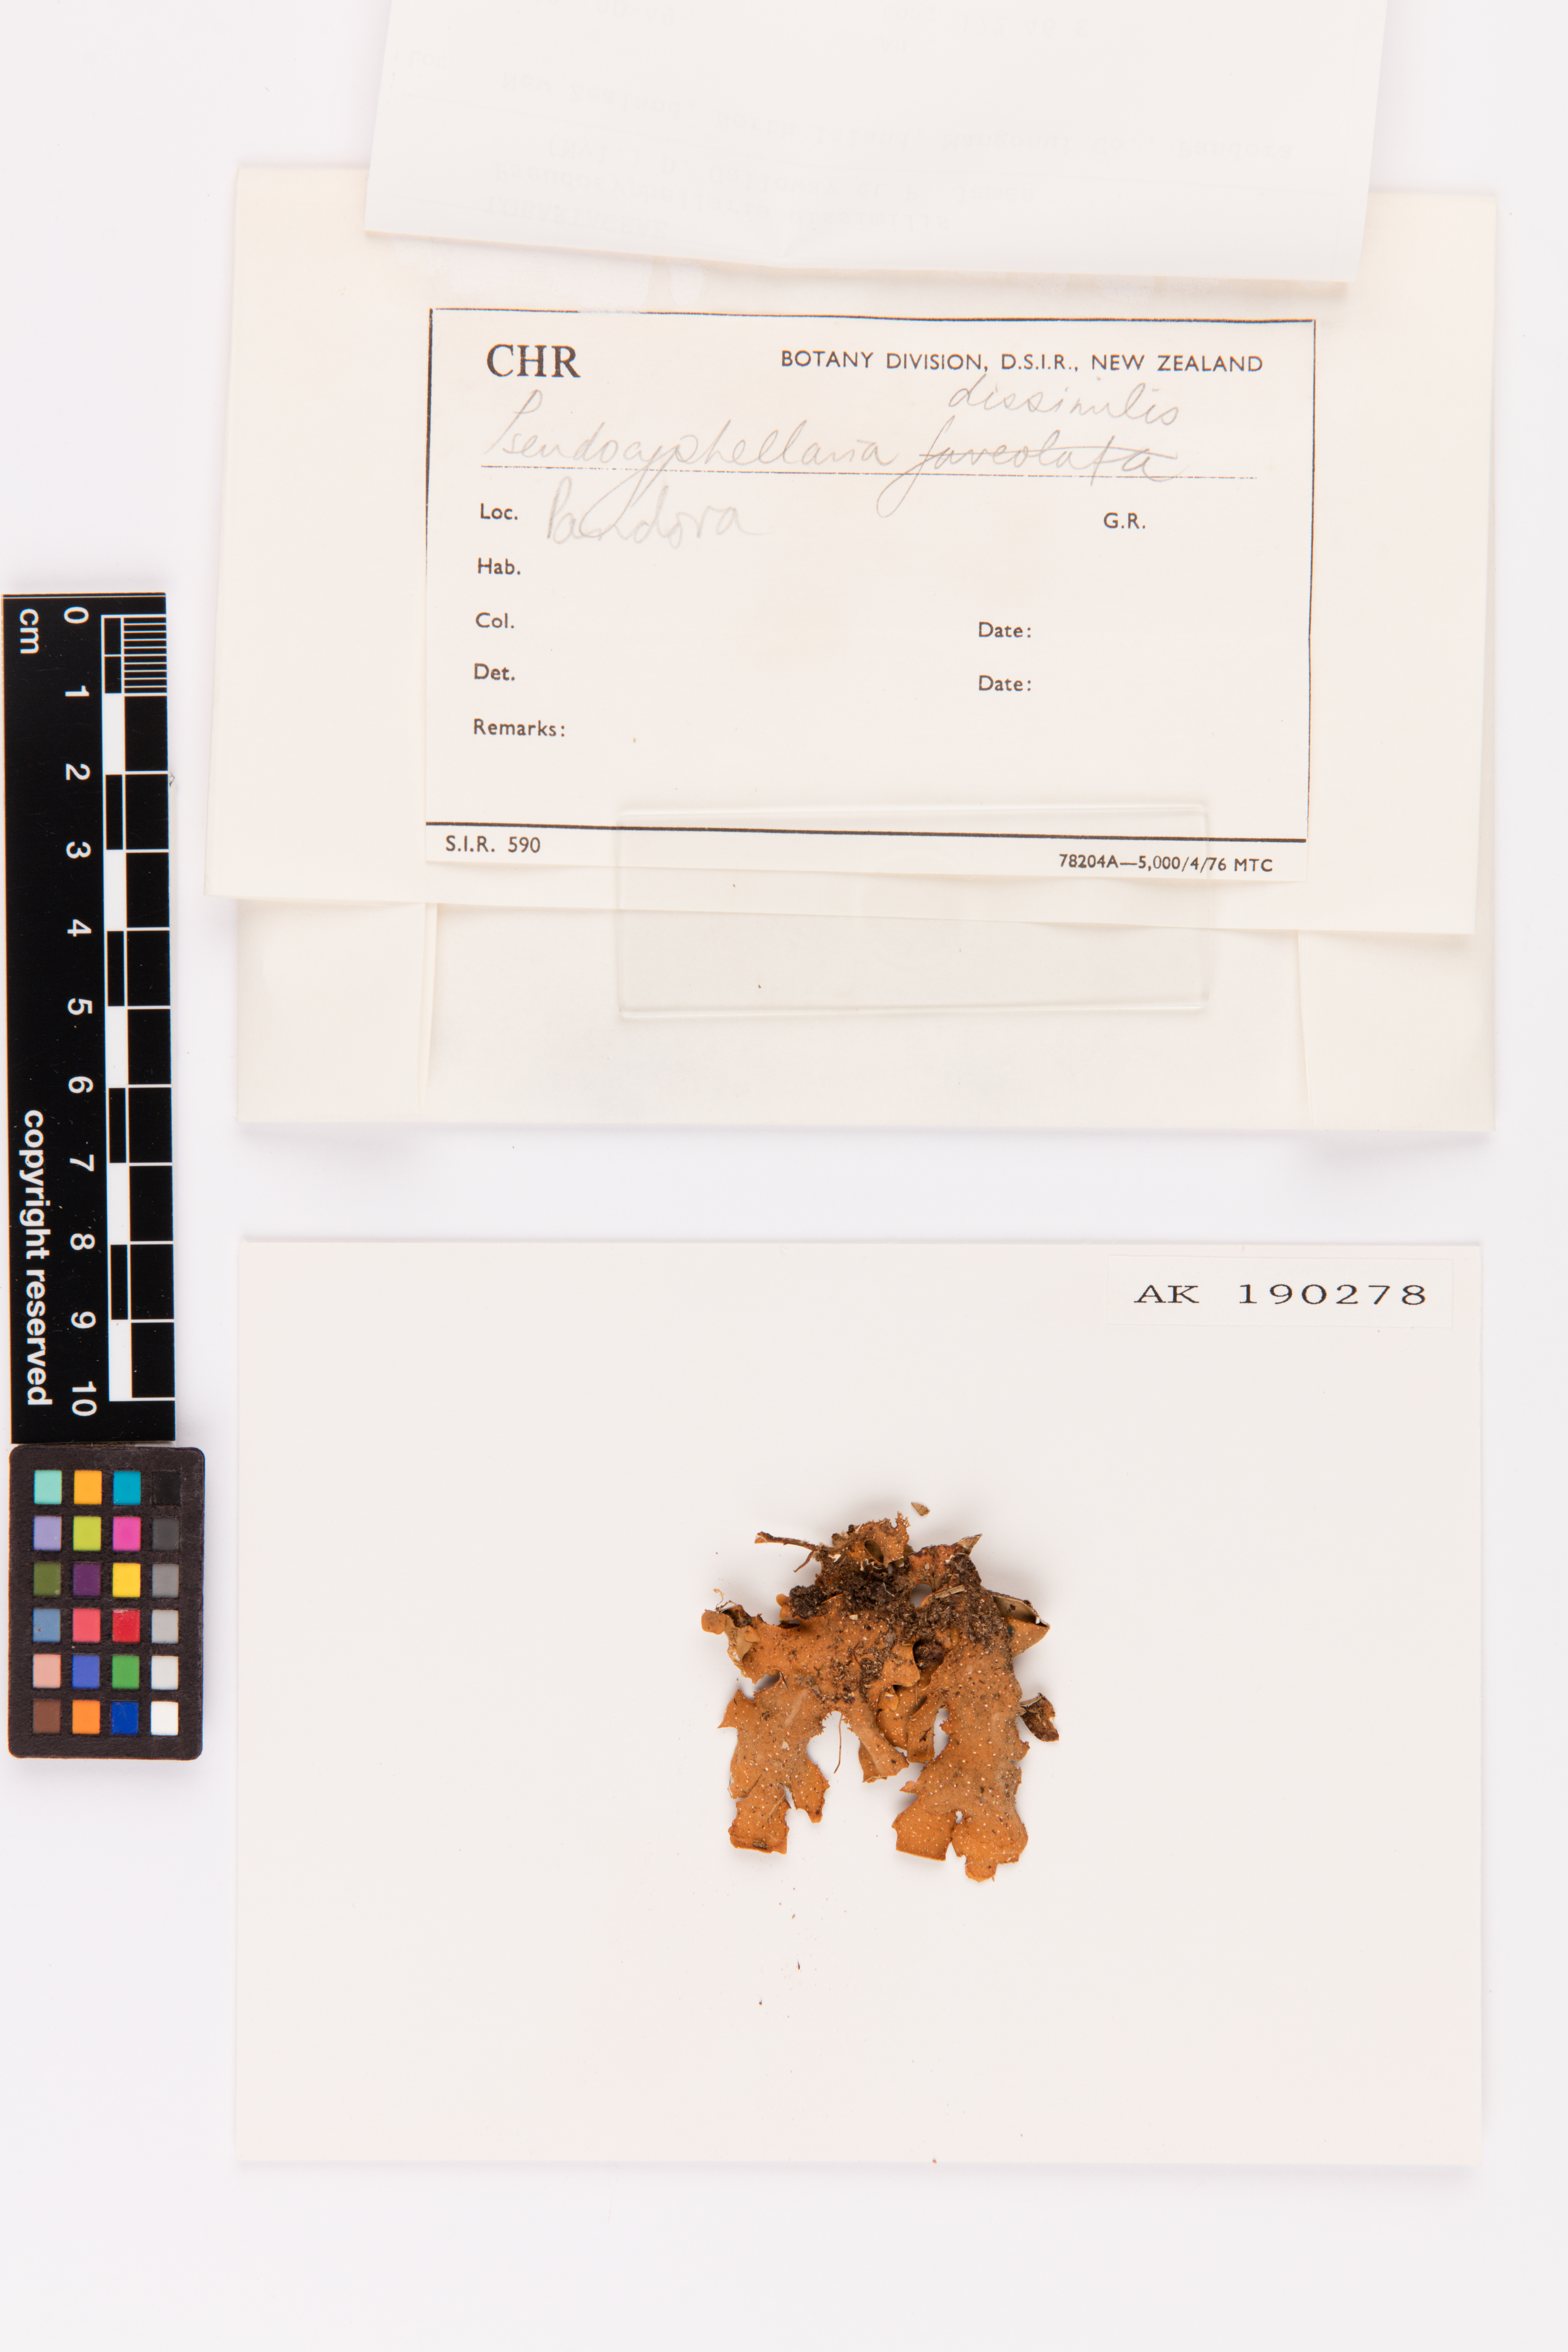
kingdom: Fungi
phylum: Ascomycota
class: Lecanoromycetes
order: Peltigerales
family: Lobariaceae
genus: Pseudocyphellaria
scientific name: Pseudocyphellaria dissimilis
